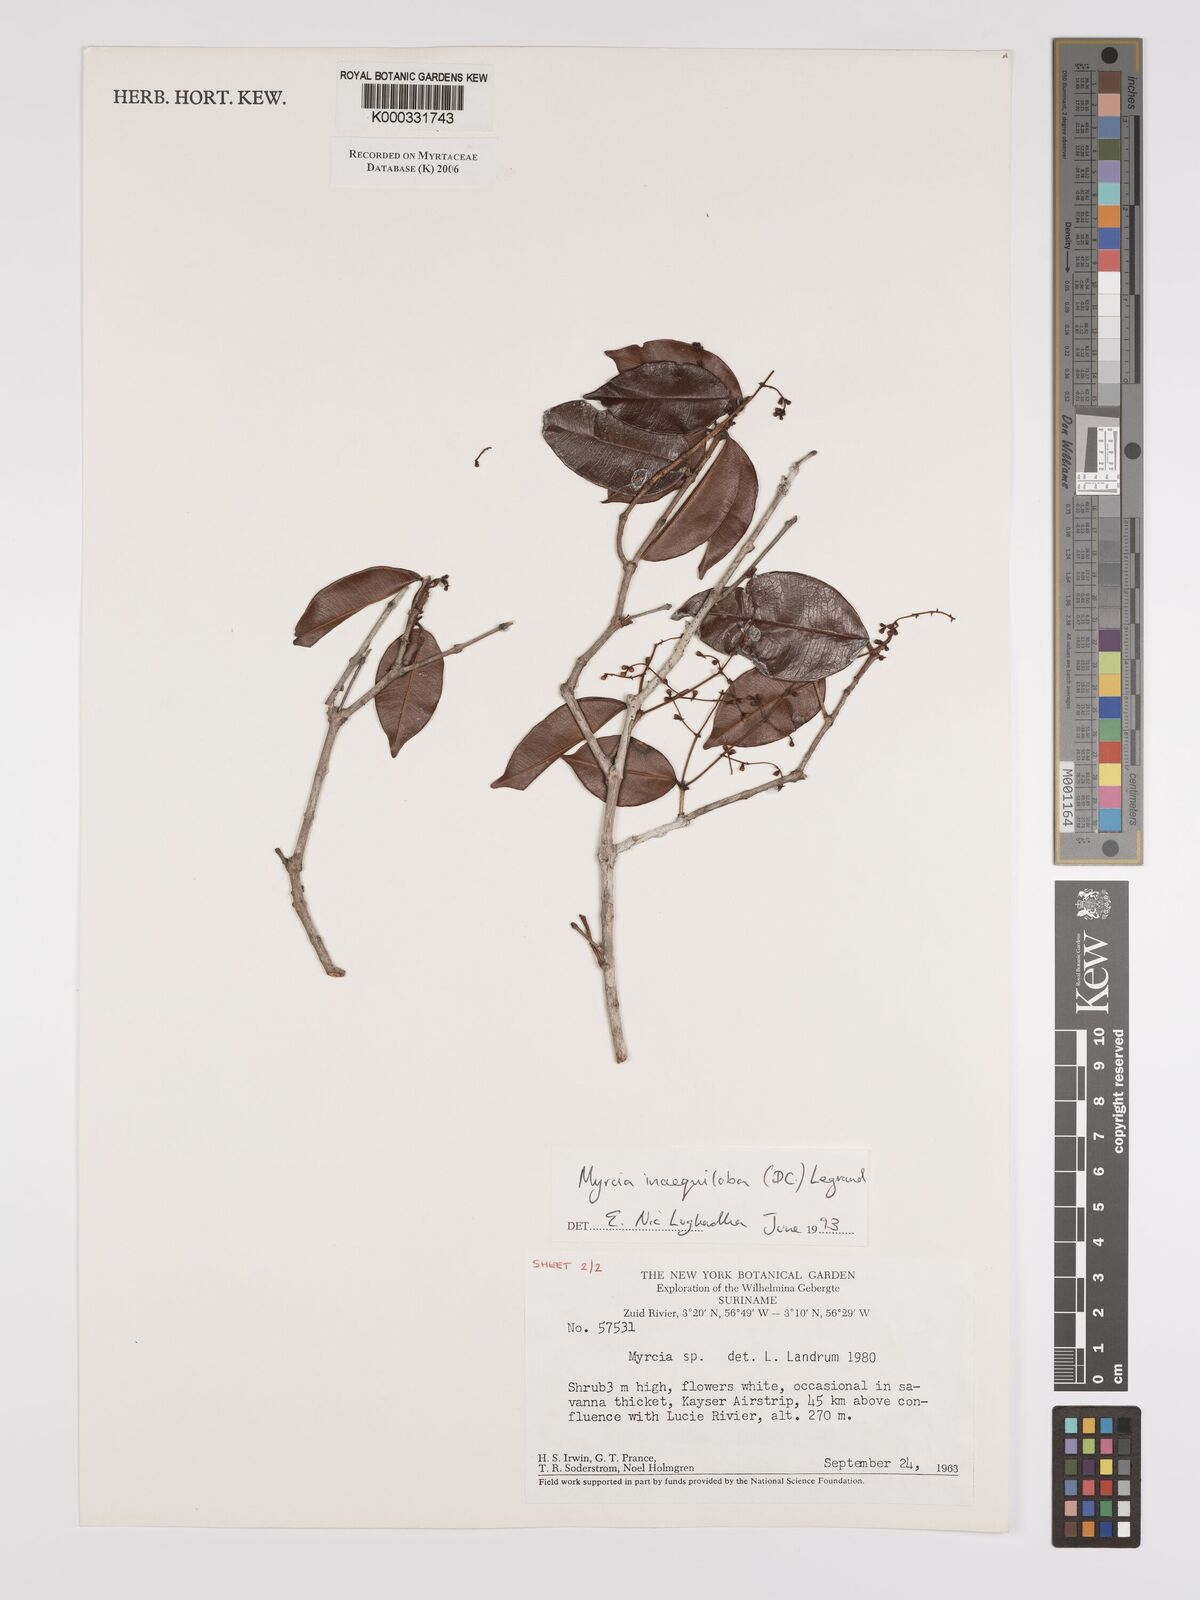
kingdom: Plantae
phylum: Tracheophyta
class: Magnoliopsida
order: Myrtales
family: Myrtaceae
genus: Myrcia
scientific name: Myrcia
